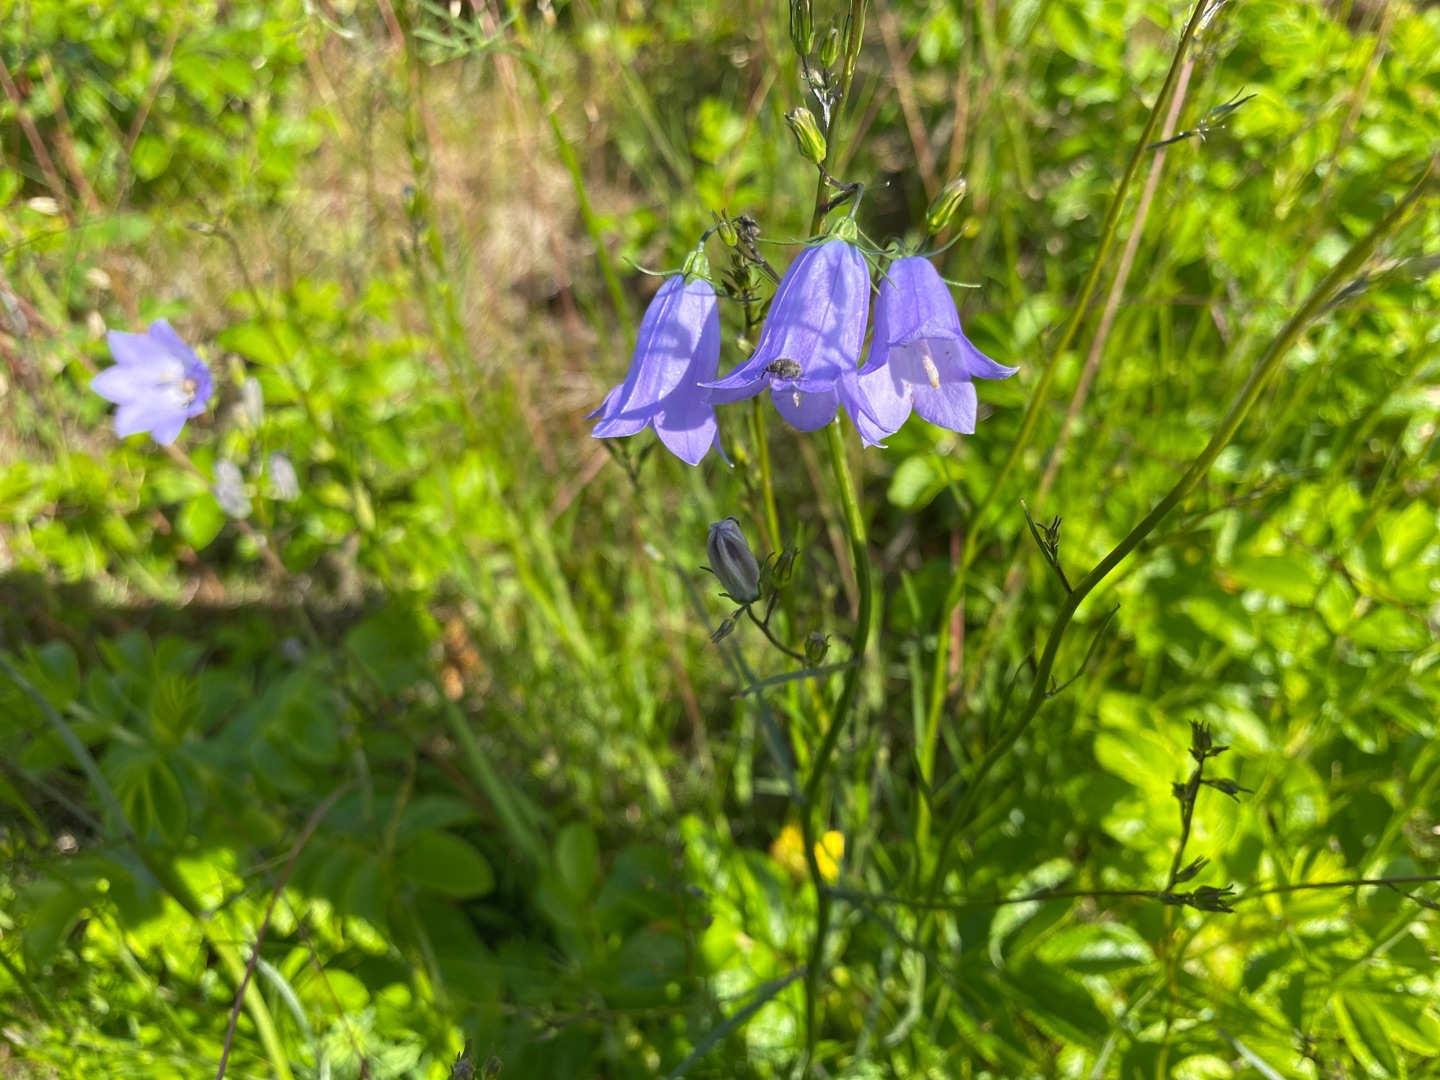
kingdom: Plantae
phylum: Tracheophyta
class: Magnoliopsida
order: Asterales
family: Campanulaceae
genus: Campanula
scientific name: Campanula rotundifolia
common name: Liden klokke
